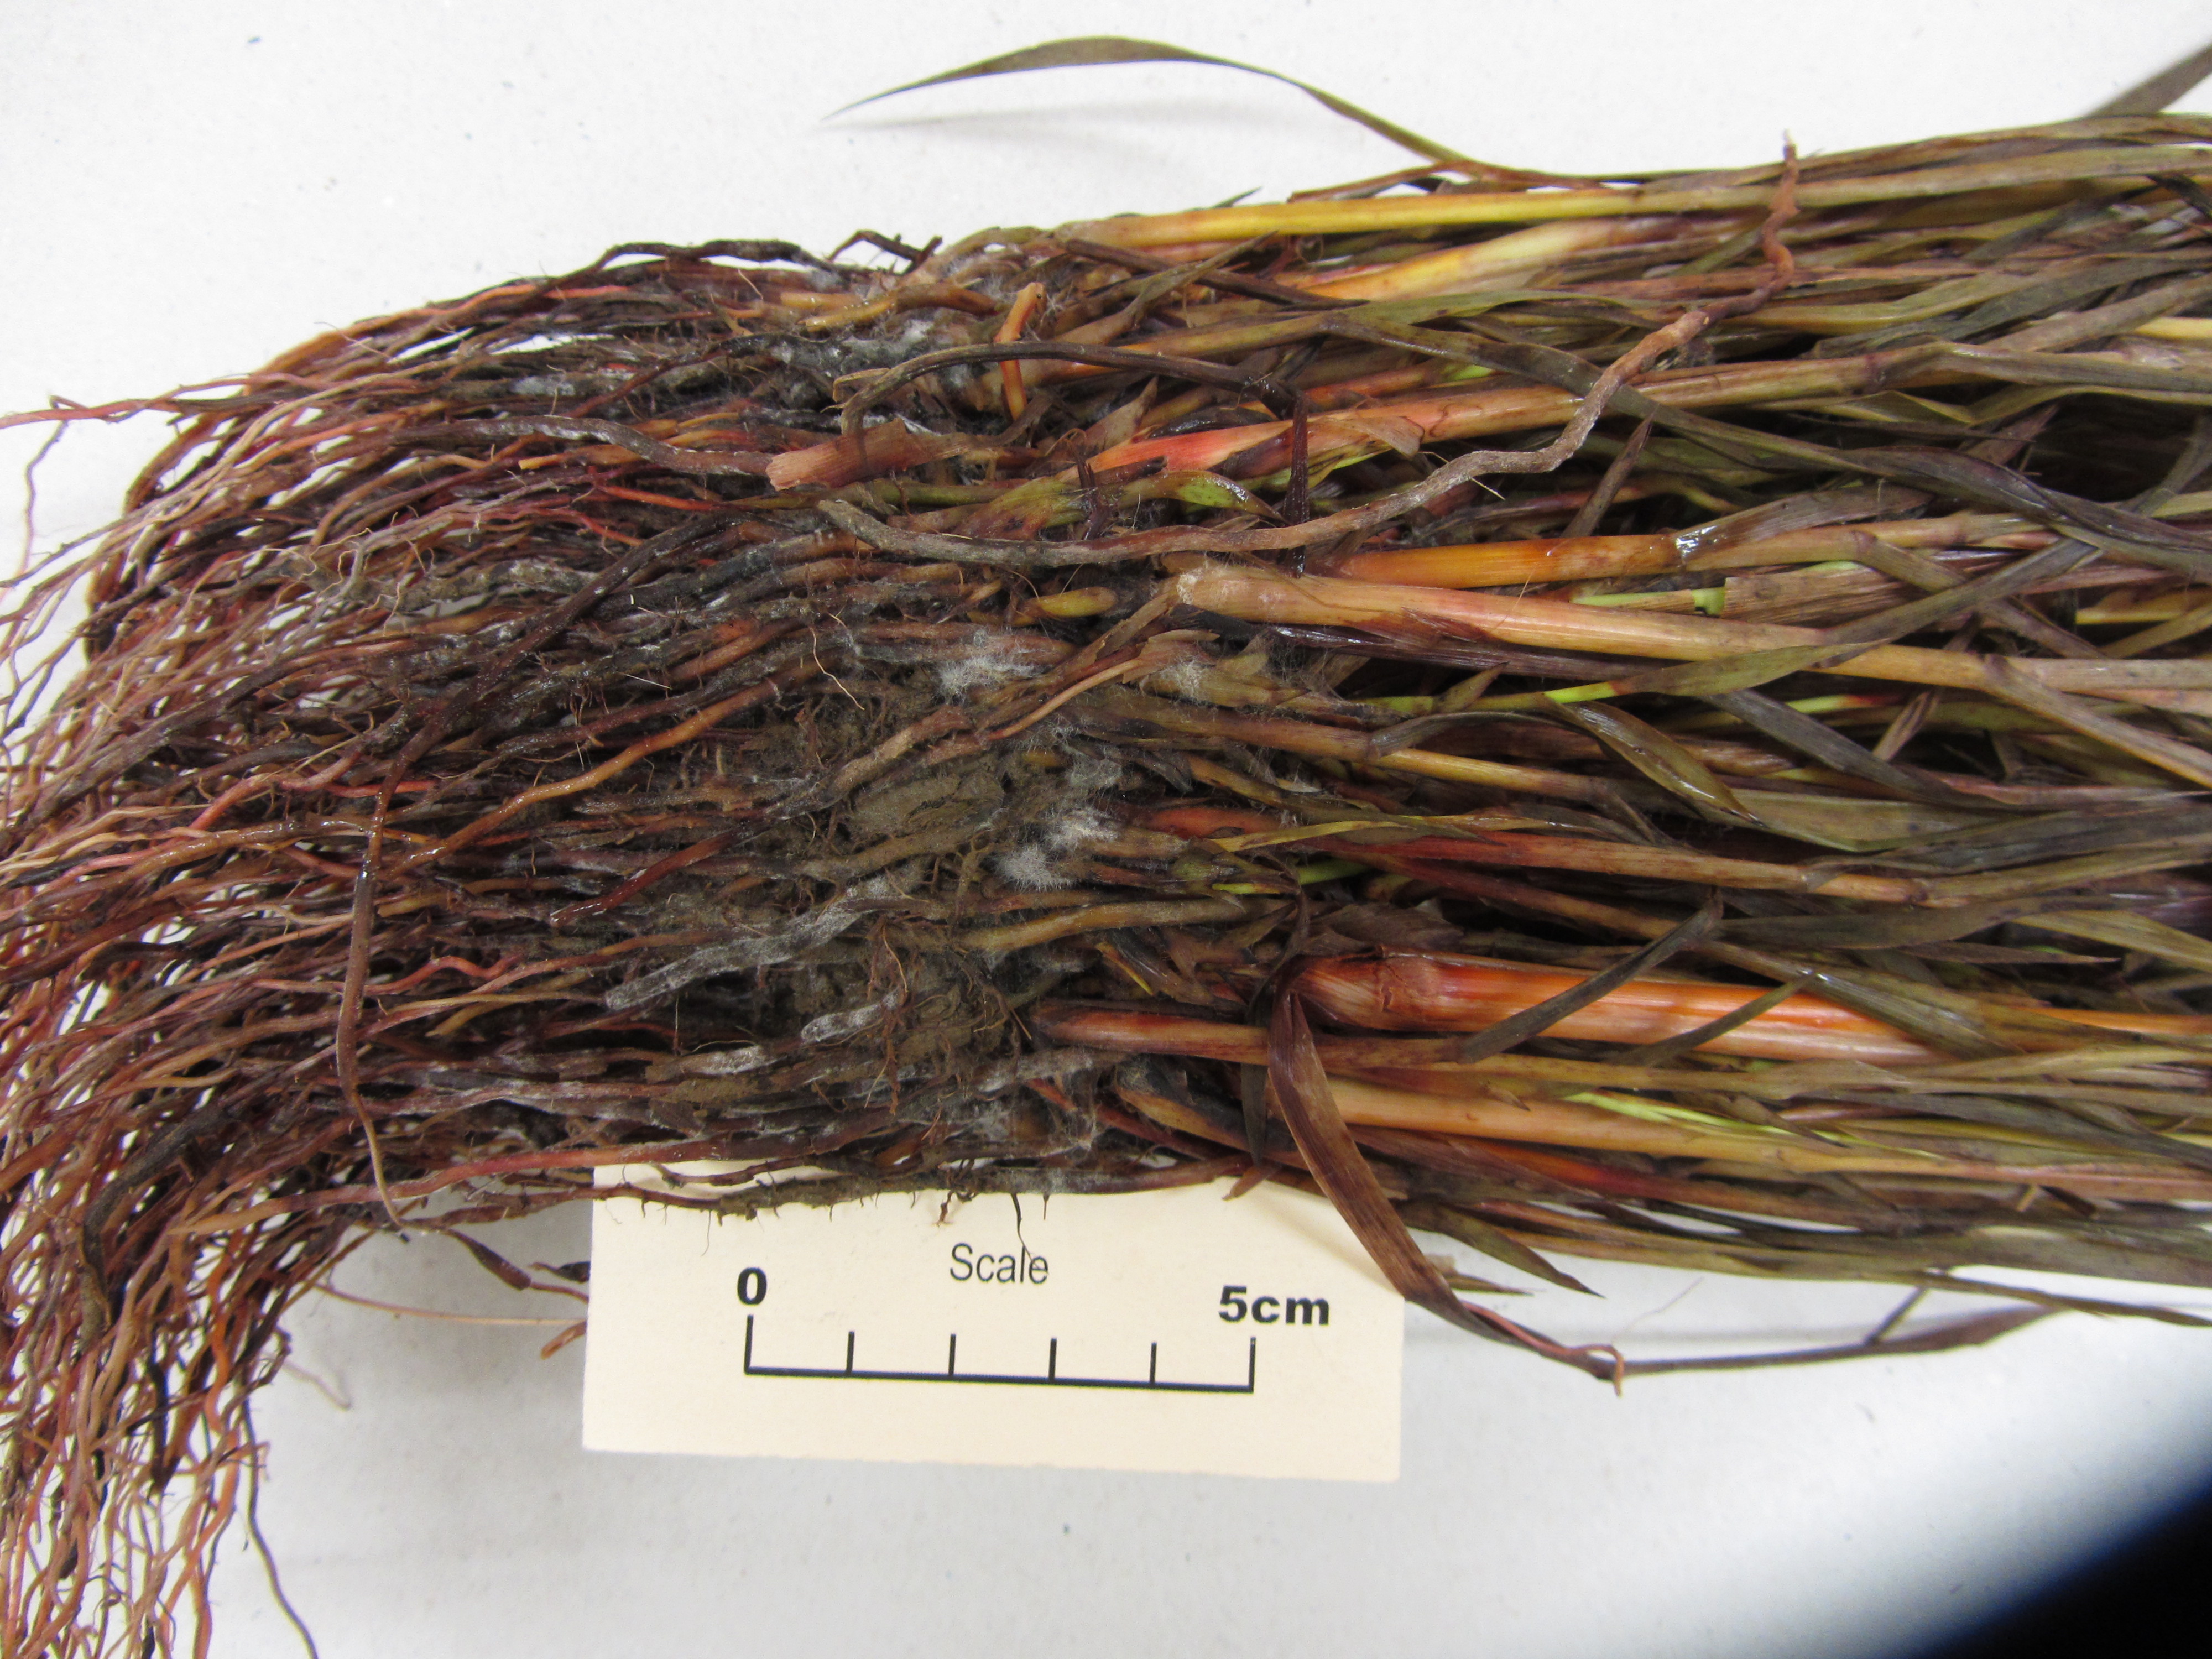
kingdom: Plantae
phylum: Tracheophyta
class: Liliopsida
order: Poales
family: Poaceae
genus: Sorghum
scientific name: Sorghum bicolor
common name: Sorghum
